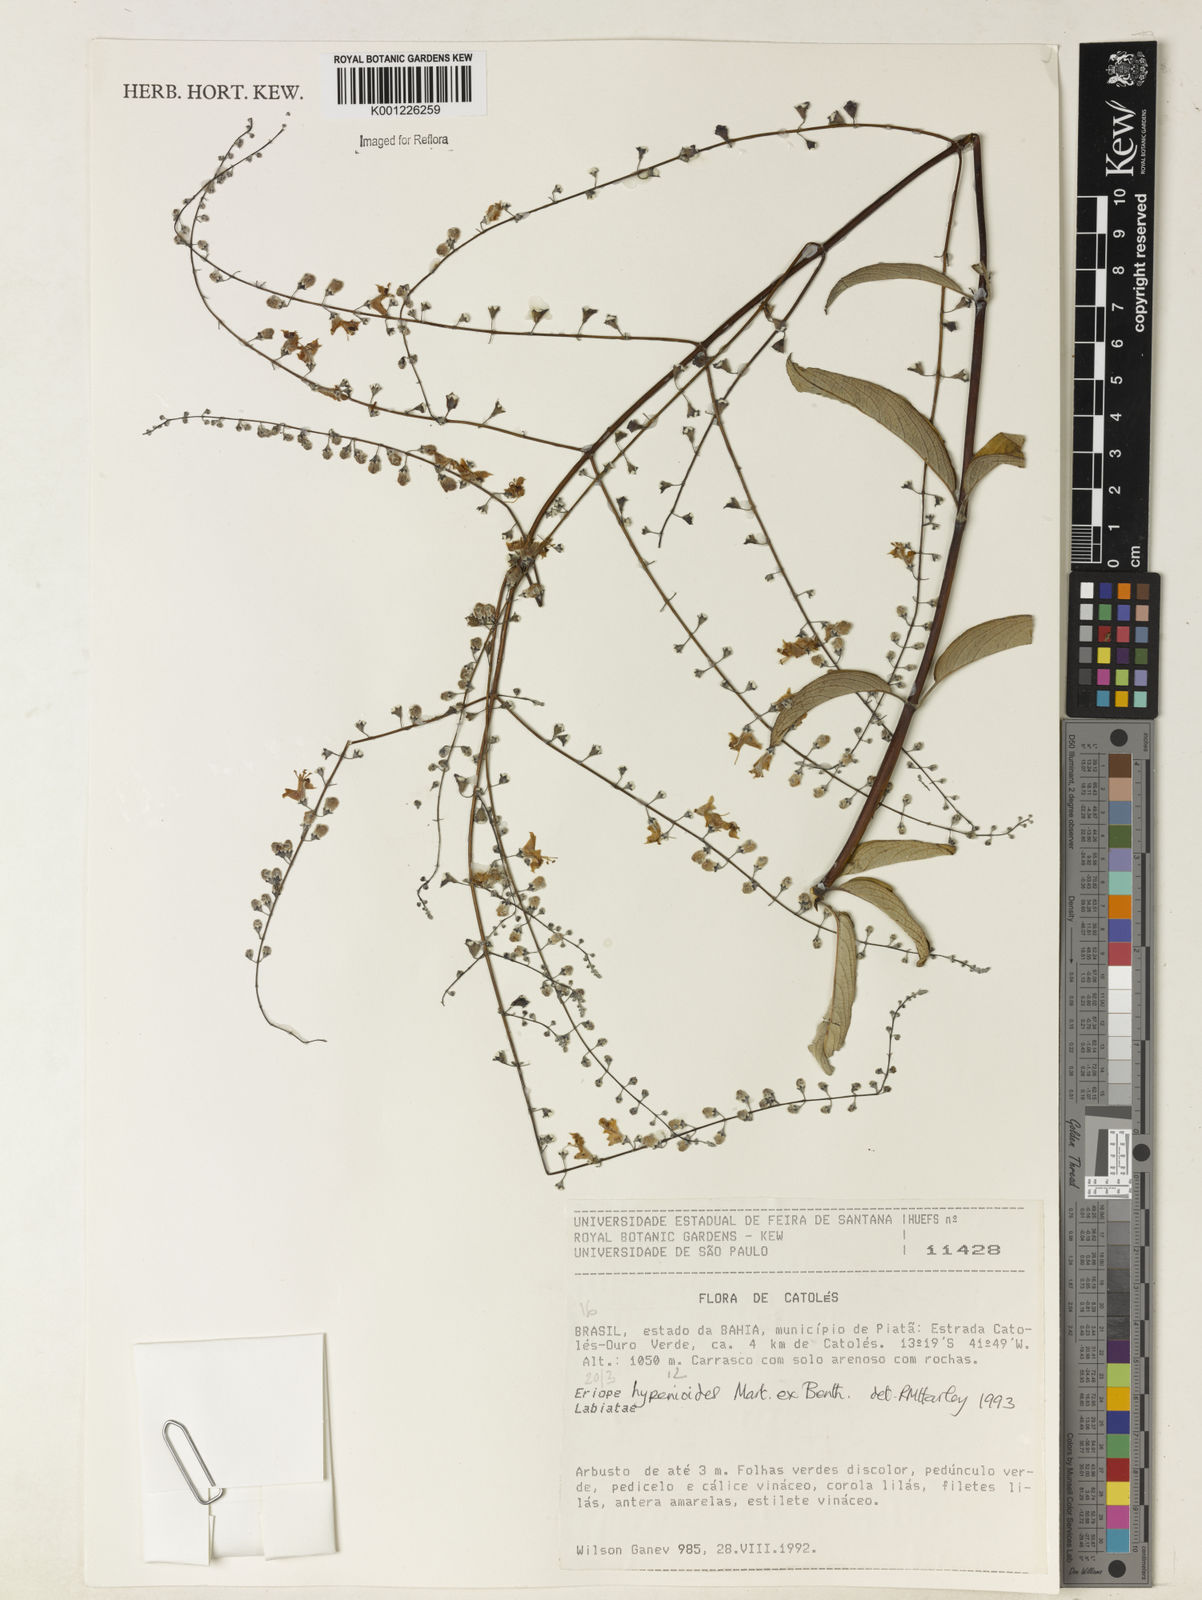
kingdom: Plantae
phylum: Tracheophyta
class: Magnoliopsida
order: Lamiales
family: Lamiaceae
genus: Eriope
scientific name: Eriope hypenioides
